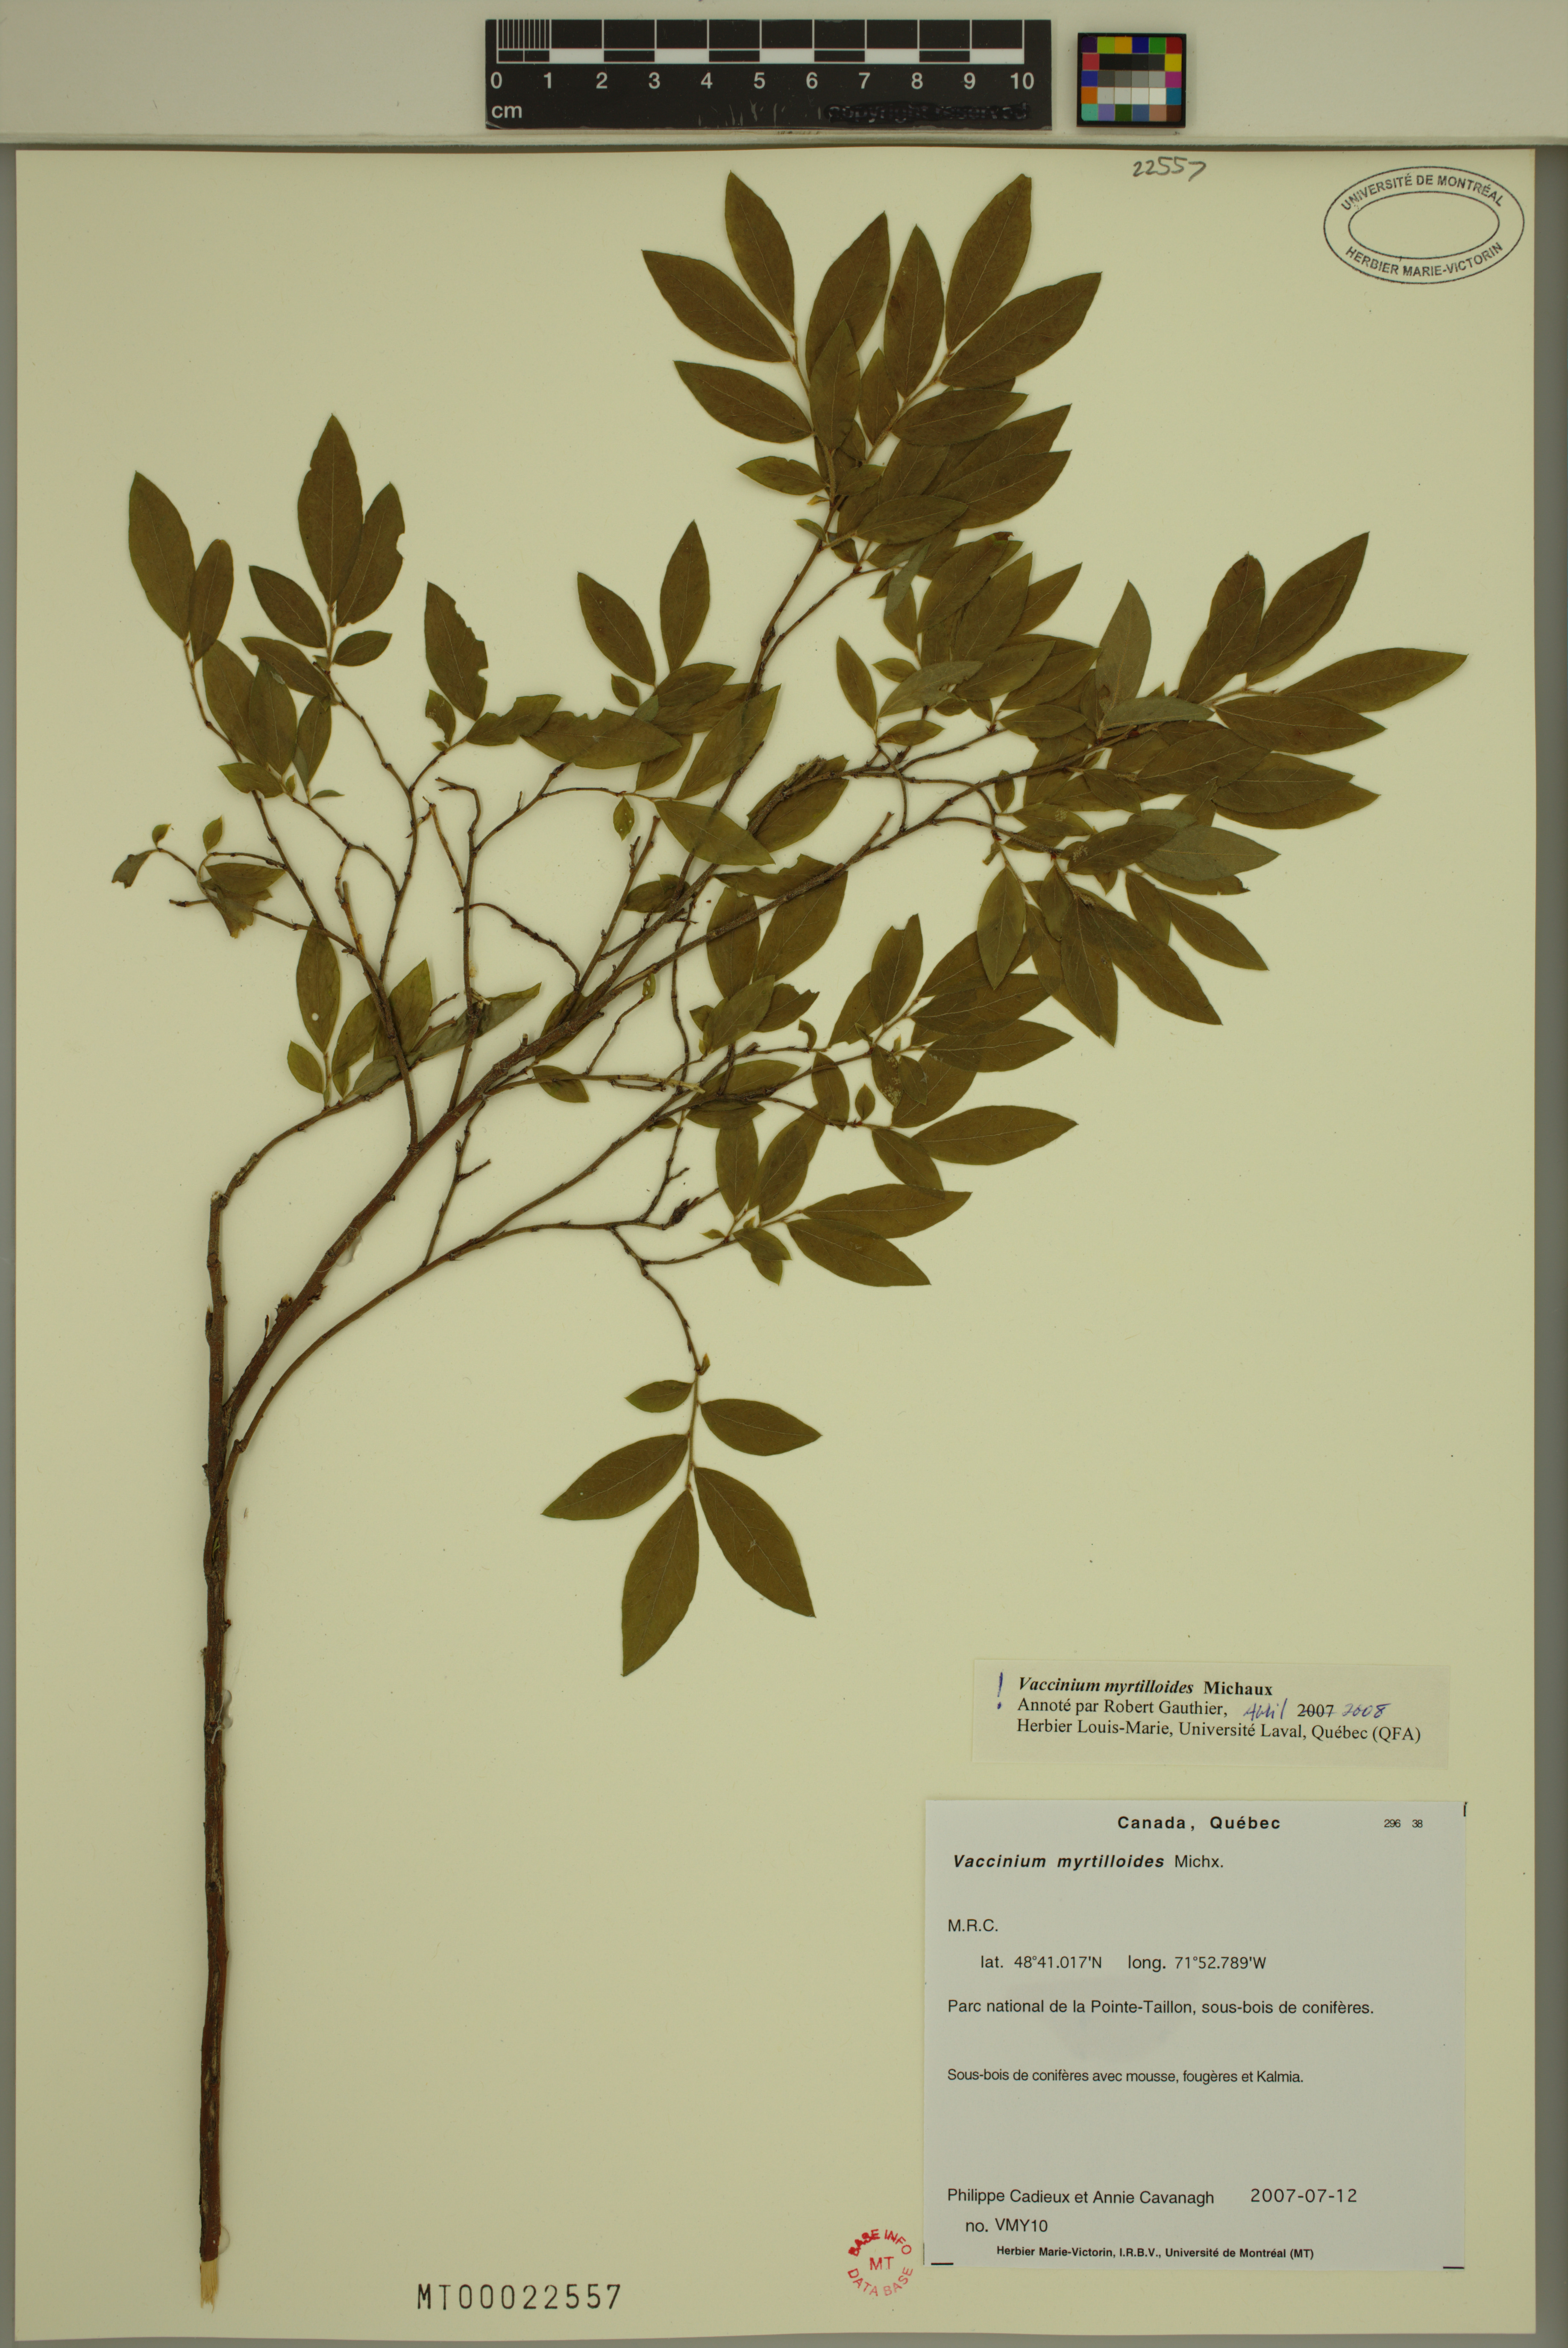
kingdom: Plantae
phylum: Tracheophyta
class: Magnoliopsida
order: Ericales
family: Ericaceae
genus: Vaccinium
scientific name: Vaccinium myrtilloides
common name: Canada blueberry
